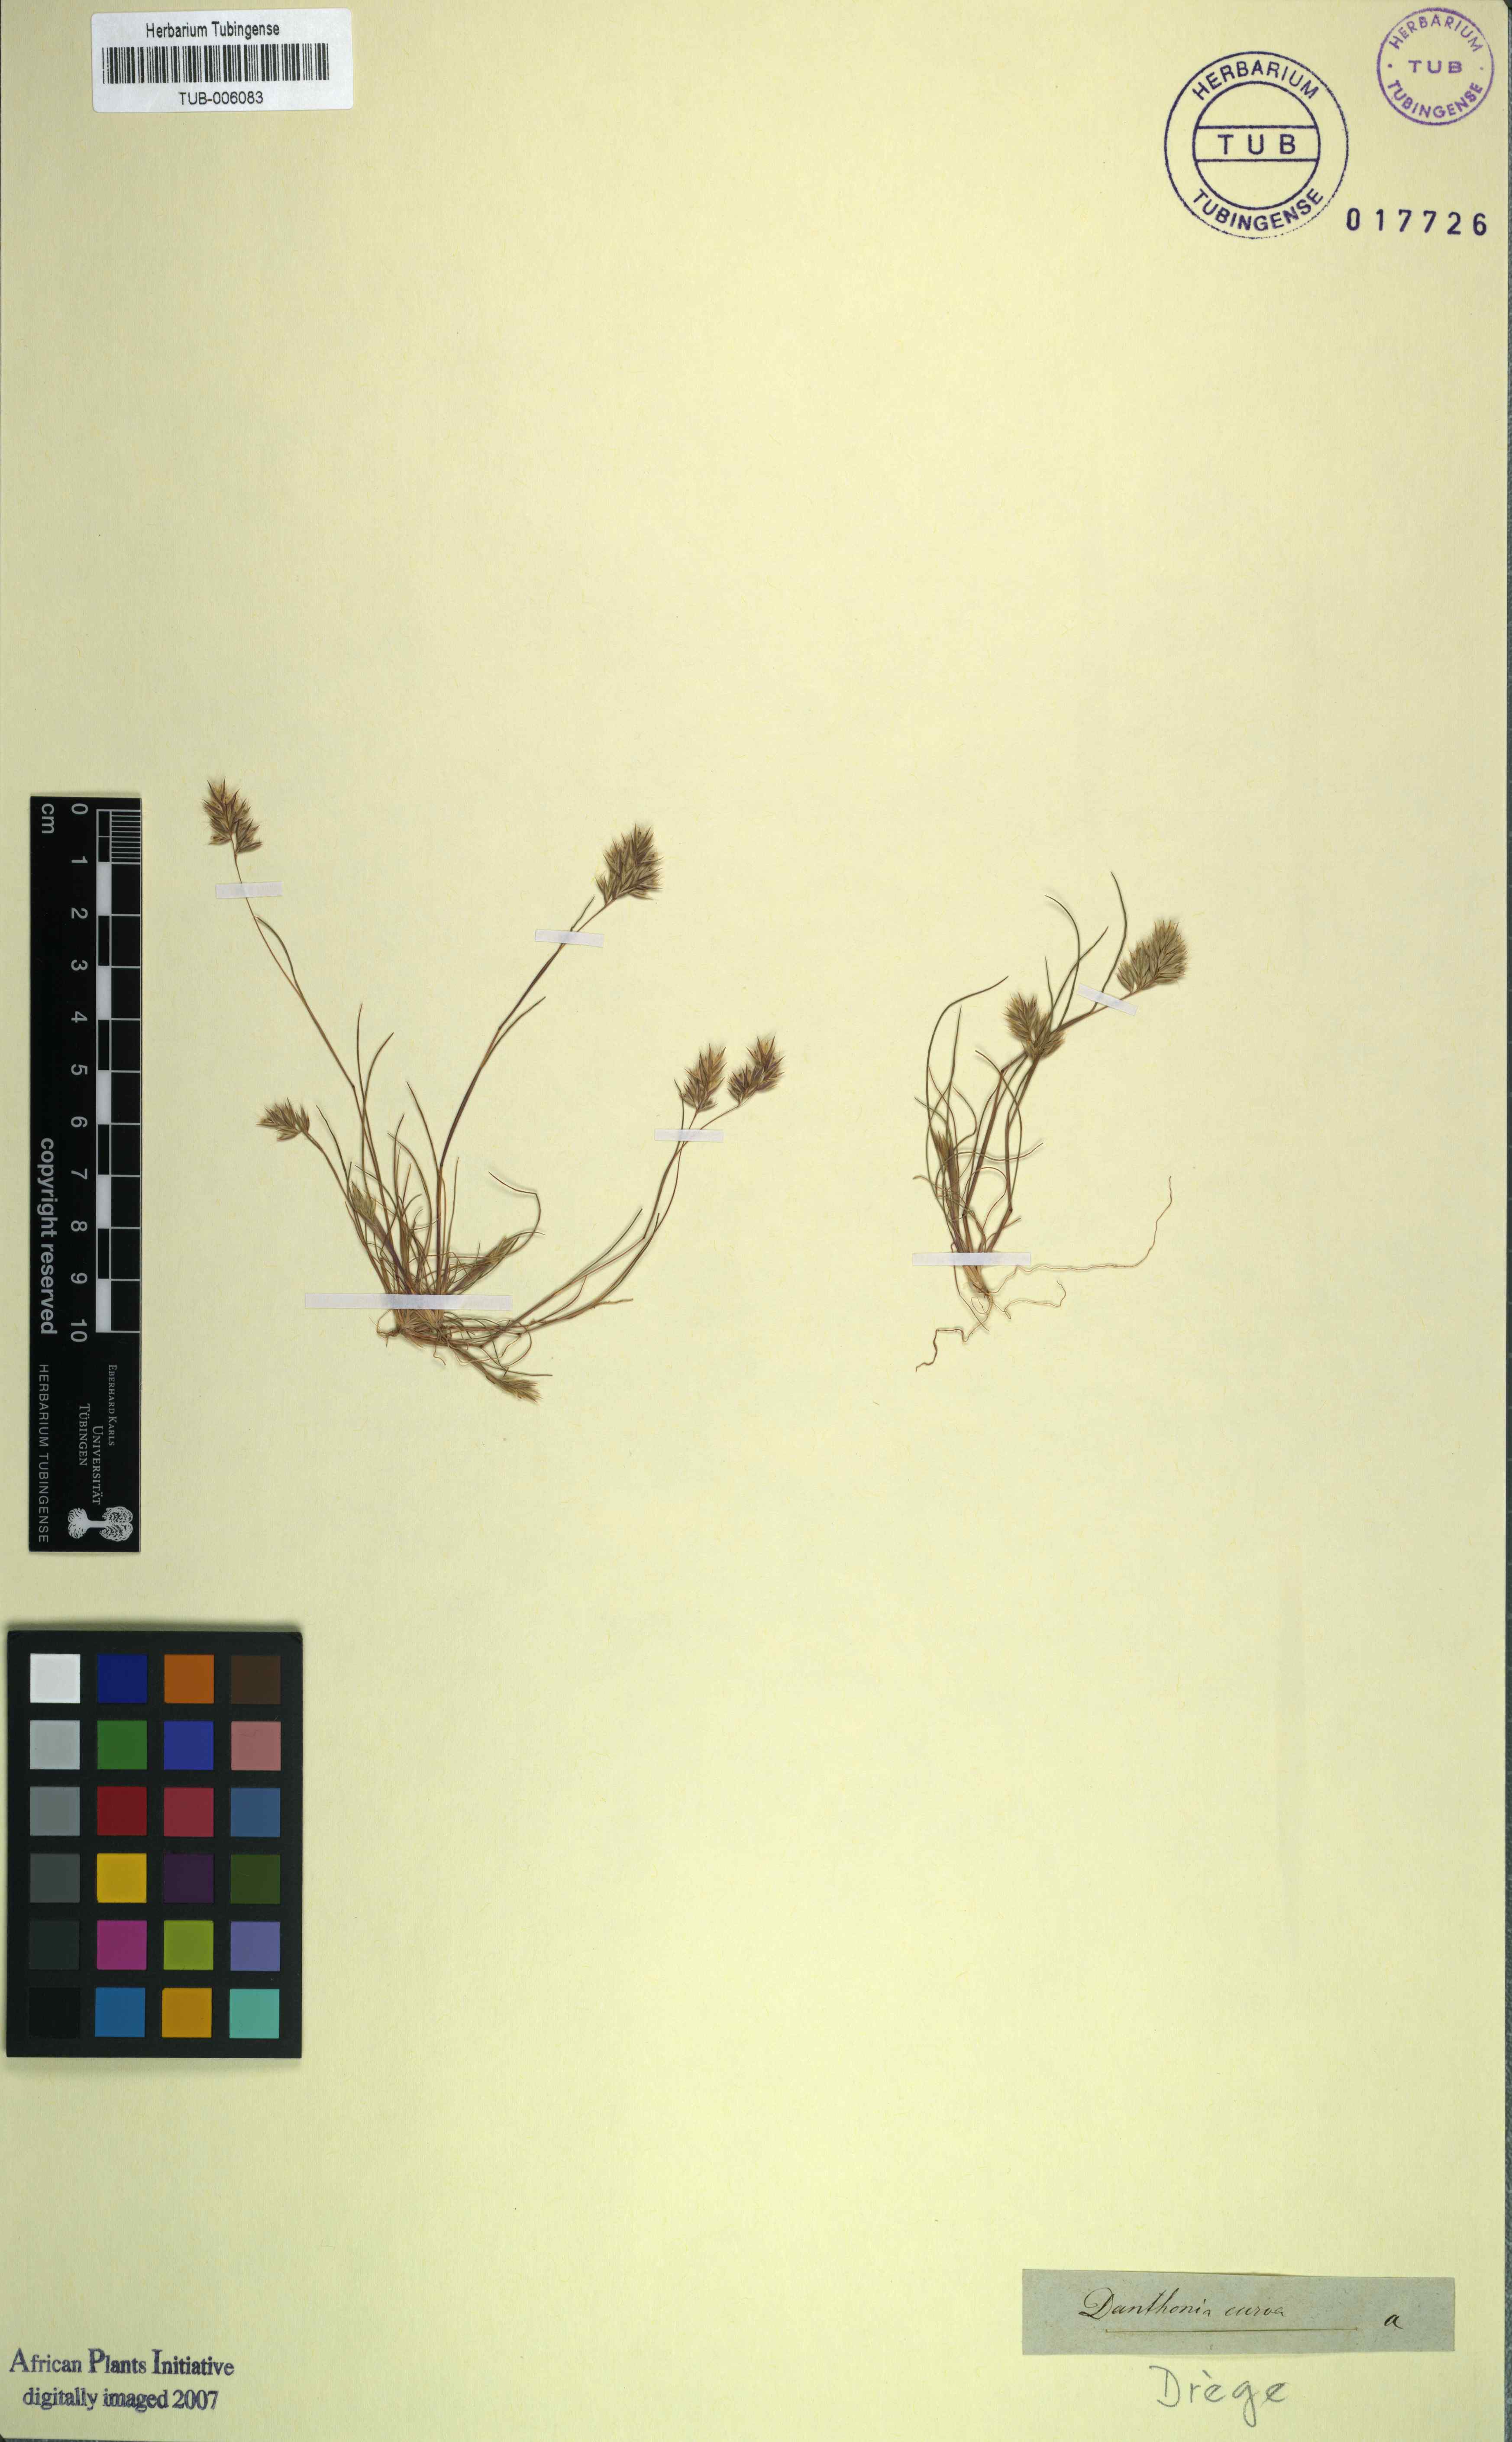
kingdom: Plantae
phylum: Tracheophyta
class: Liliopsida
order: Poales
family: Poaceae
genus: Tribolium
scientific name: Tribolium curvum
